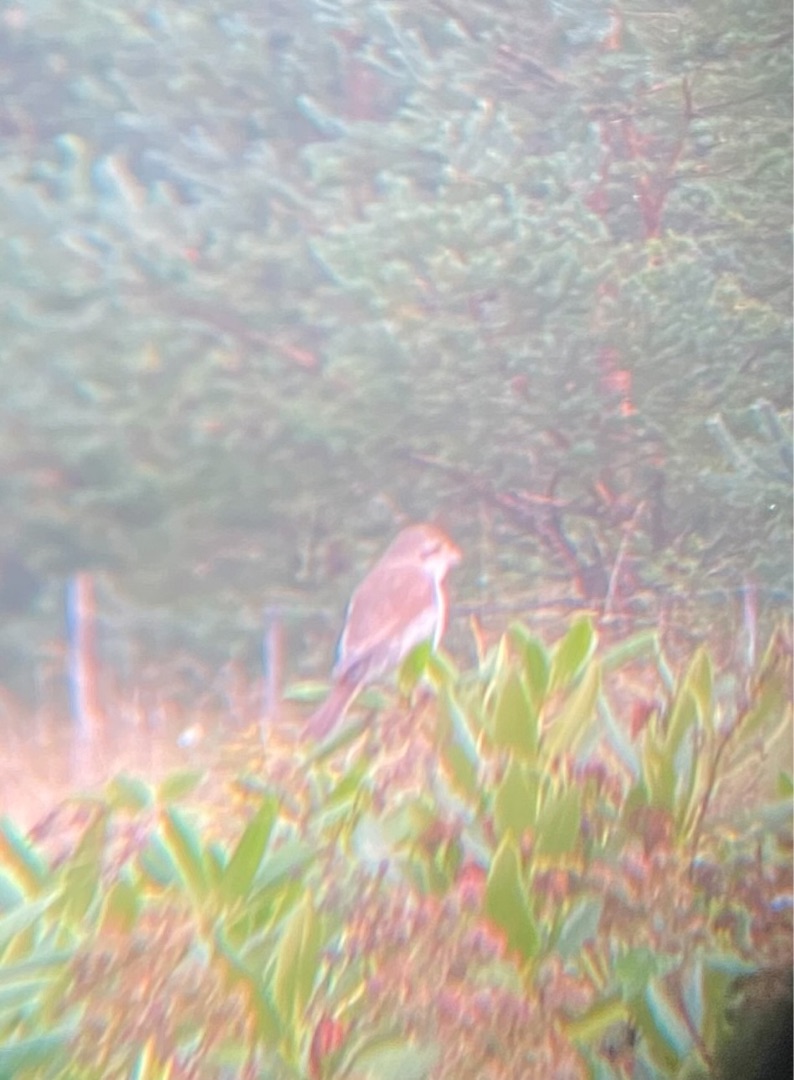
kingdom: Animalia
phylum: Chordata
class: Aves
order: Passeriformes
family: Laniidae
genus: Lanius
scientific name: Lanius collurio
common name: Rødrygget tornskade
